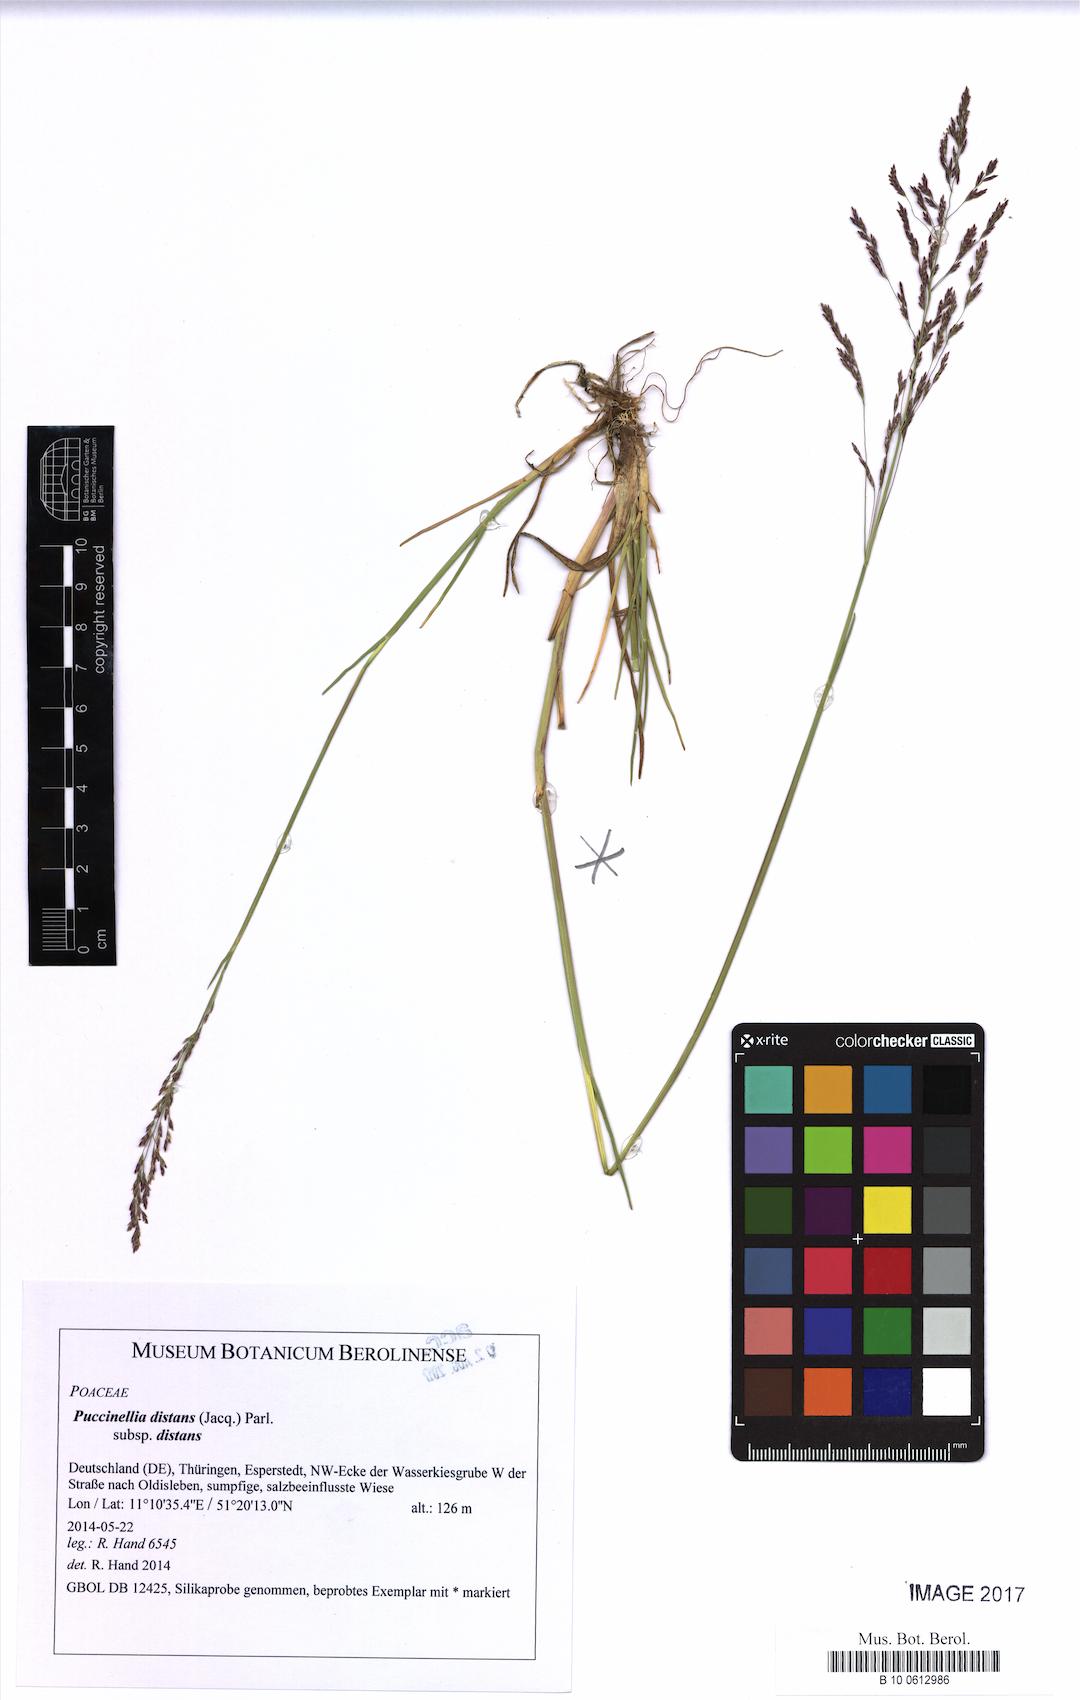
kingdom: Plantae
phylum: Tracheophyta
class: Liliopsida
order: Poales
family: Poaceae
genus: Puccinellia
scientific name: Puccinellia distans
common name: Weeping alkaligrass
